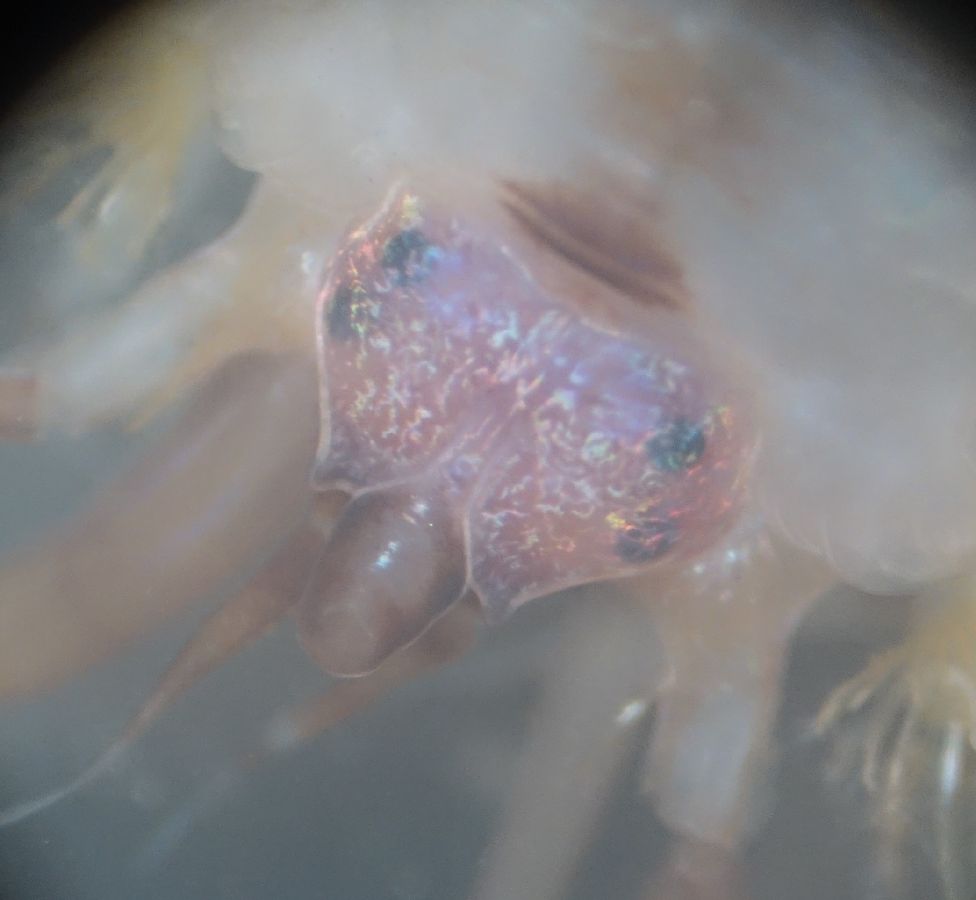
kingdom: Animalia
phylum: Annelida
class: Polychaeta
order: Phyllodocida
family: Polynoidae
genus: Eunoe
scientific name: Eunoe nodosa
